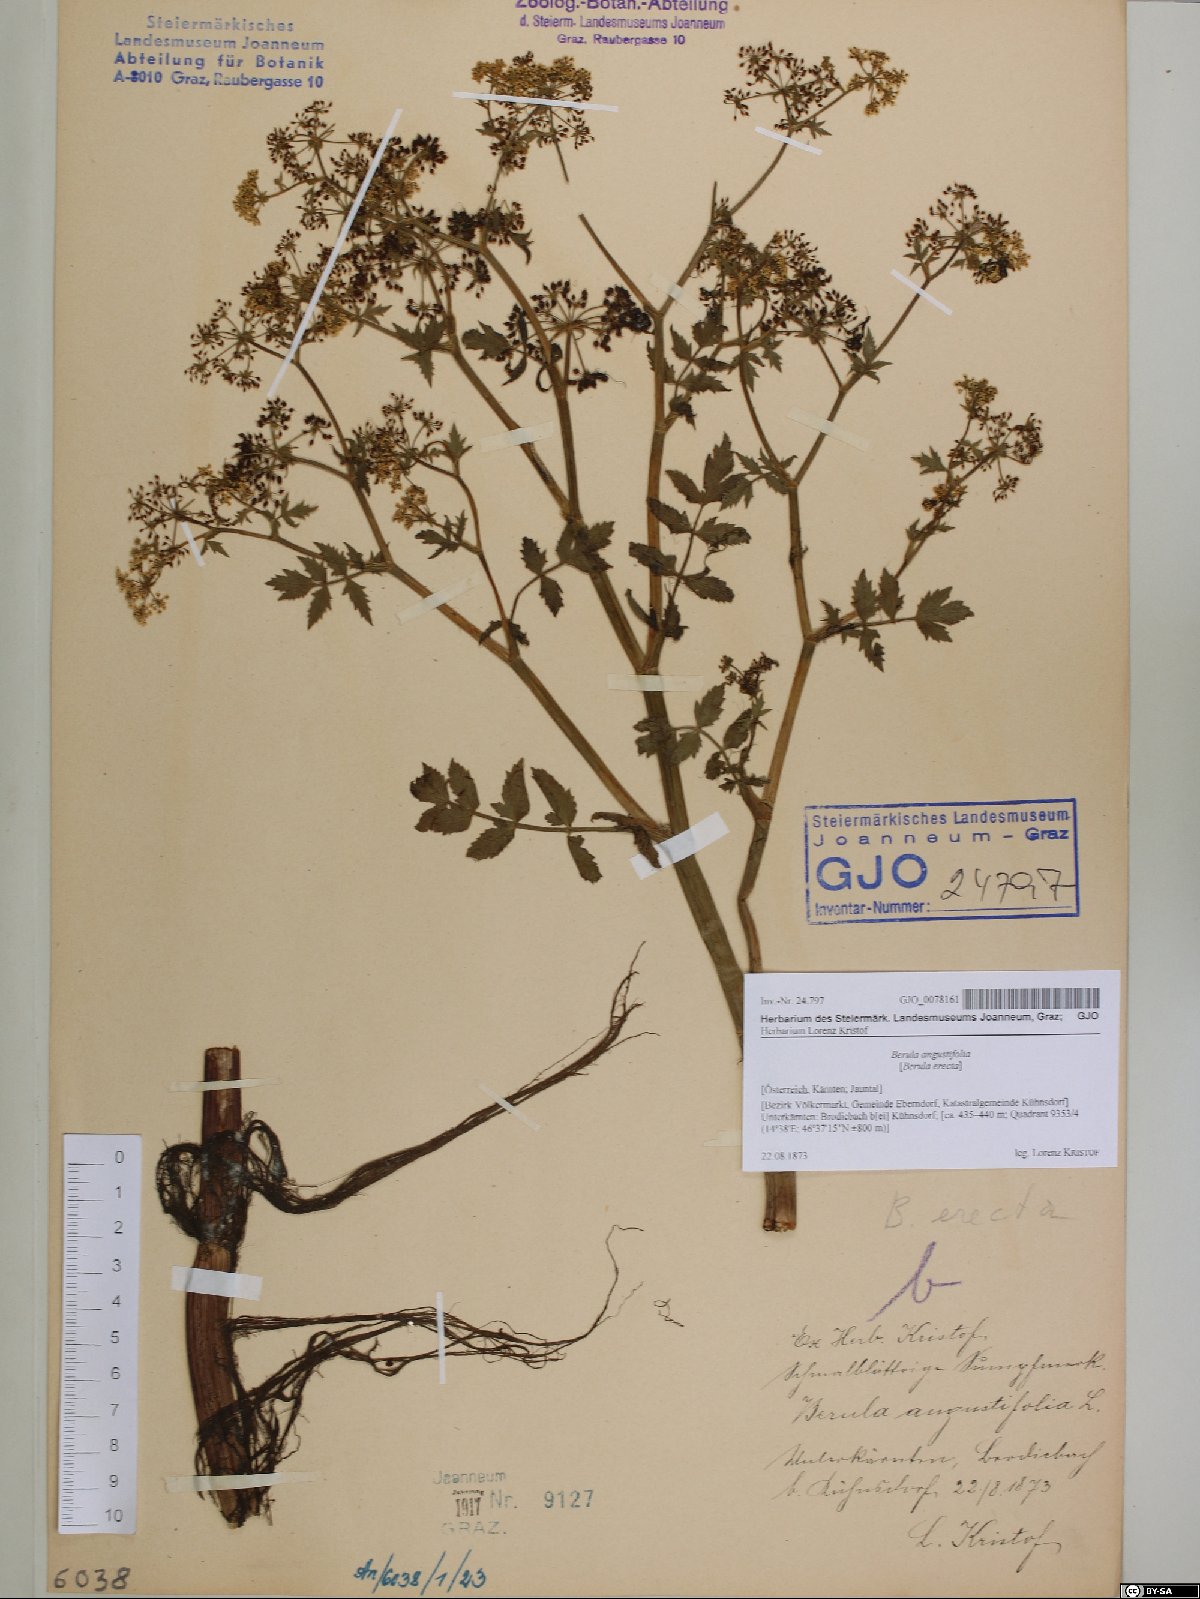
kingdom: Plantae
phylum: Tracheophyta
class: Magnoliopsida
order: Apiales
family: Apiaceae
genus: Berula
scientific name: Berula erecta
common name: Lesser water-parsnip
